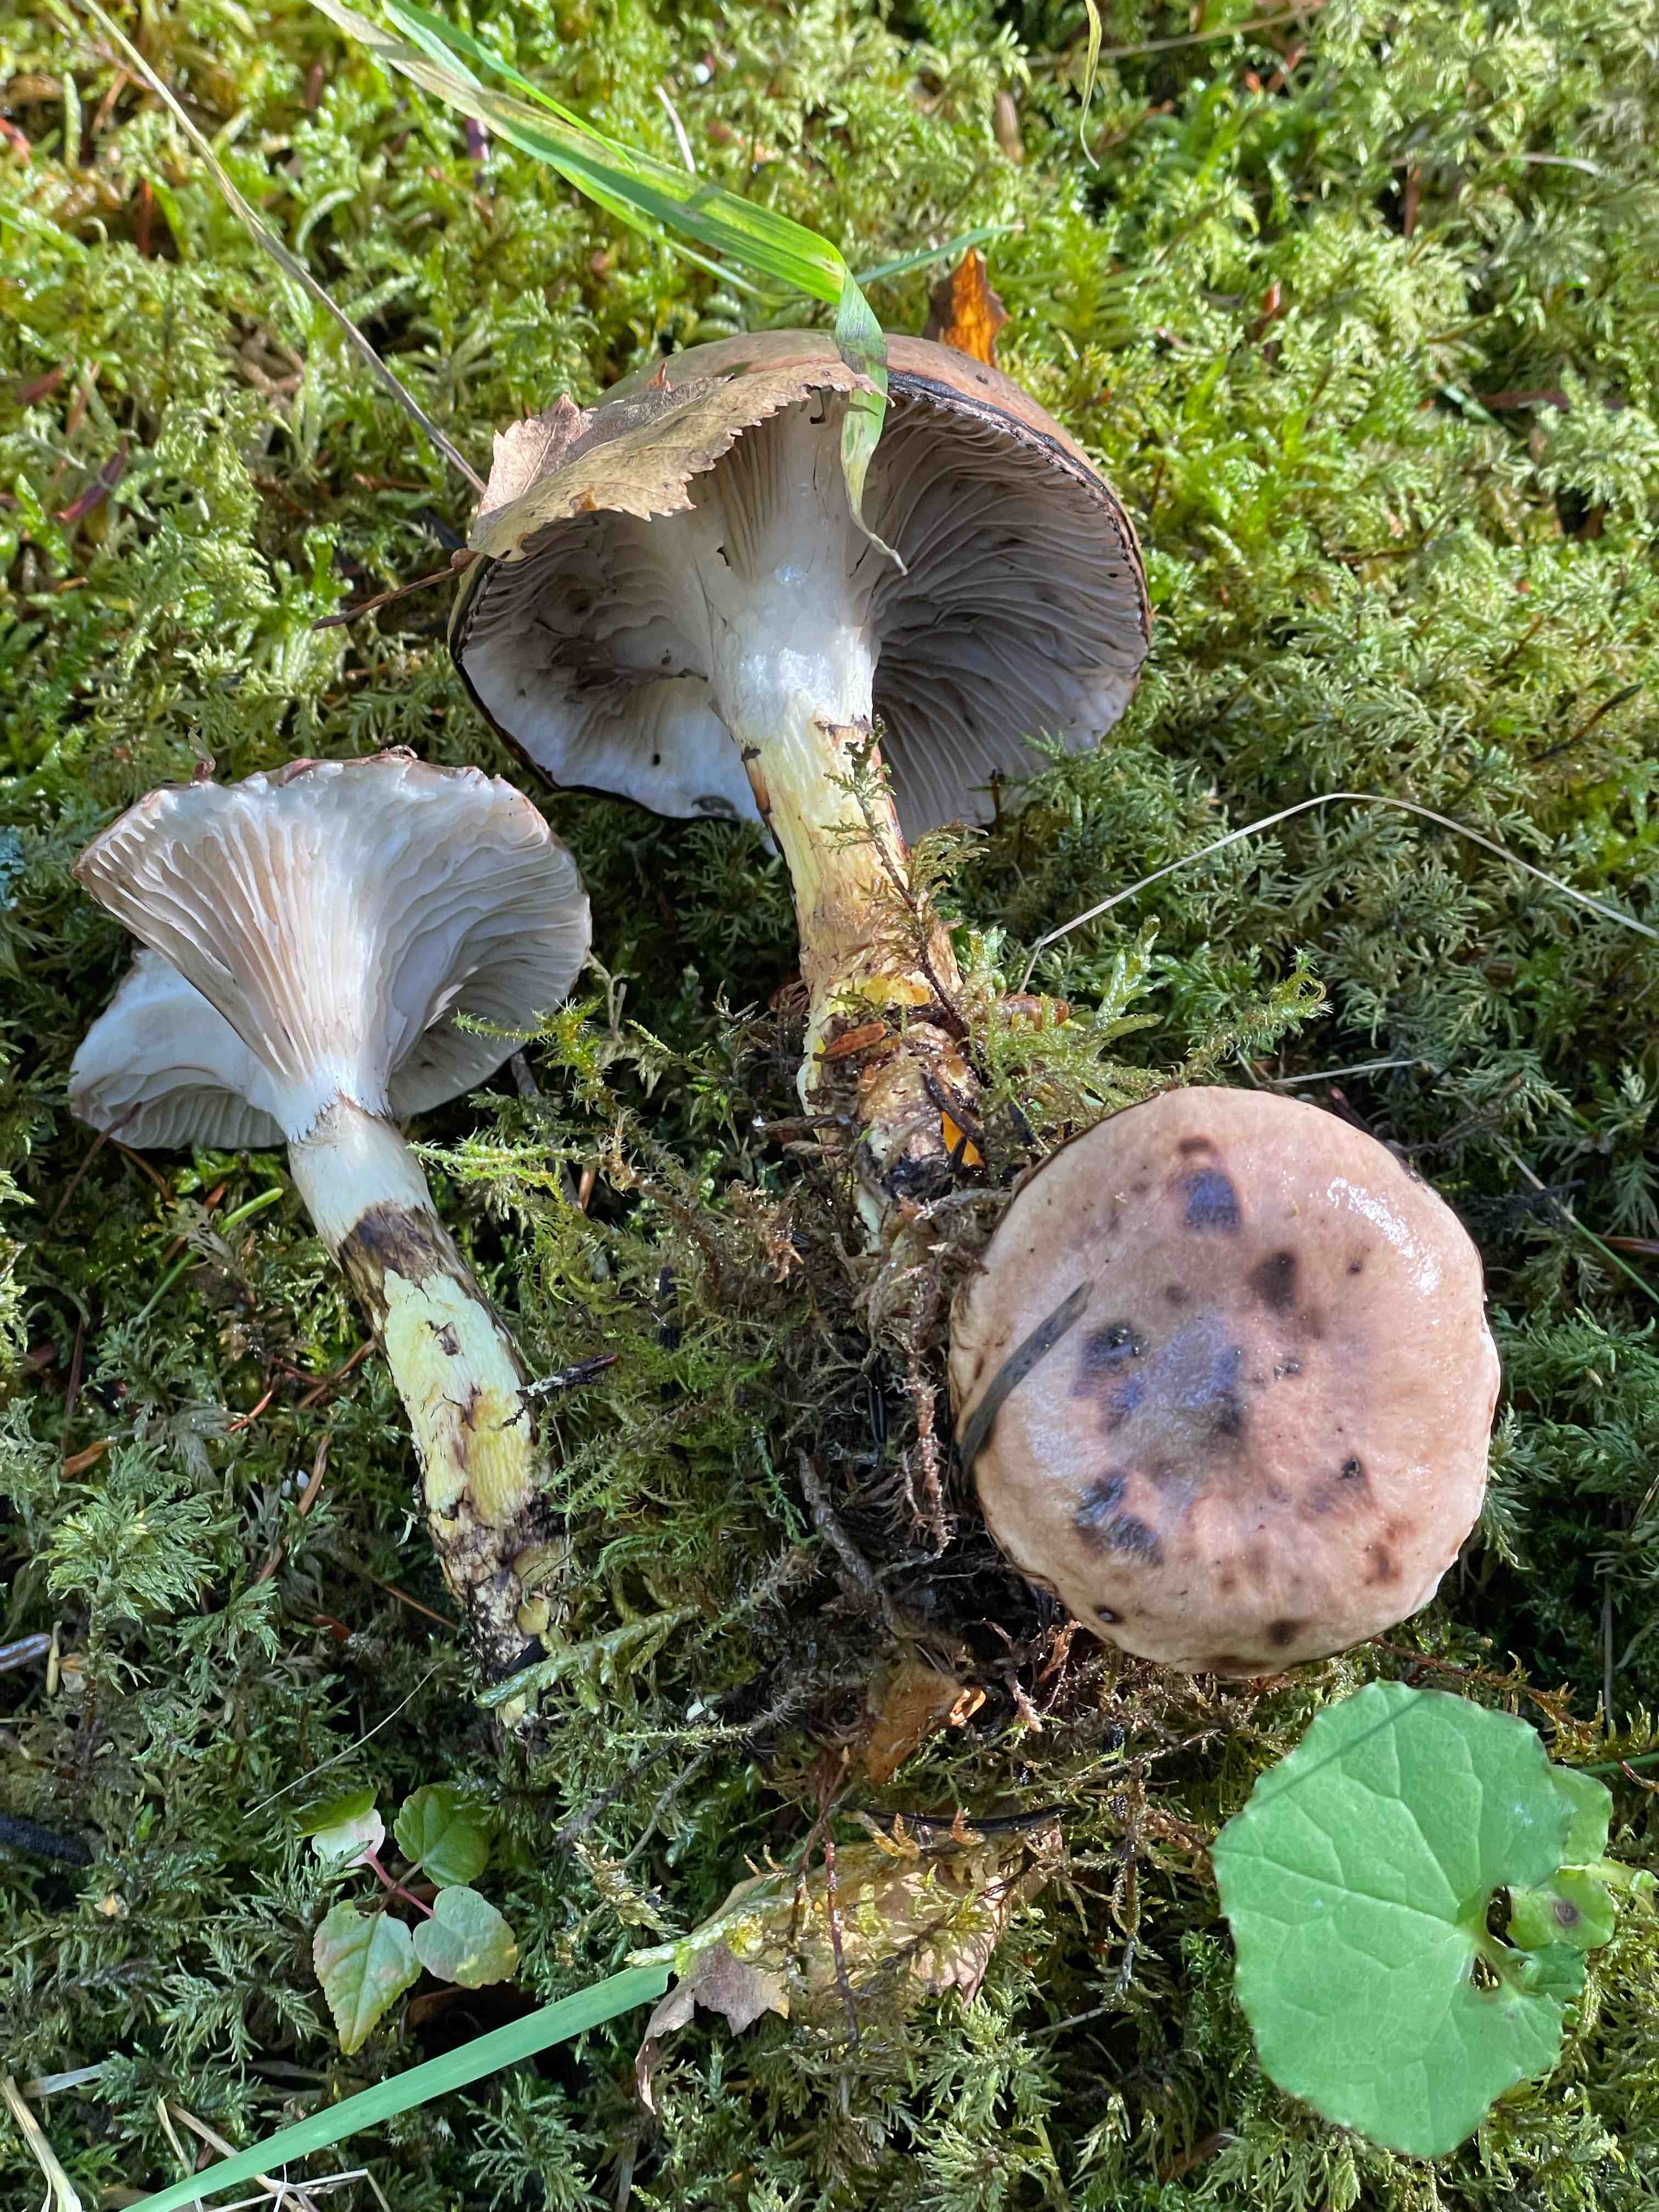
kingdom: Fungi
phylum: Basidiomycota
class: Agaricomycetes
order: Boletales
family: Gomphidiaceae
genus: Gomphidius
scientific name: Gomphidius glutinosus
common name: grå slimslør
